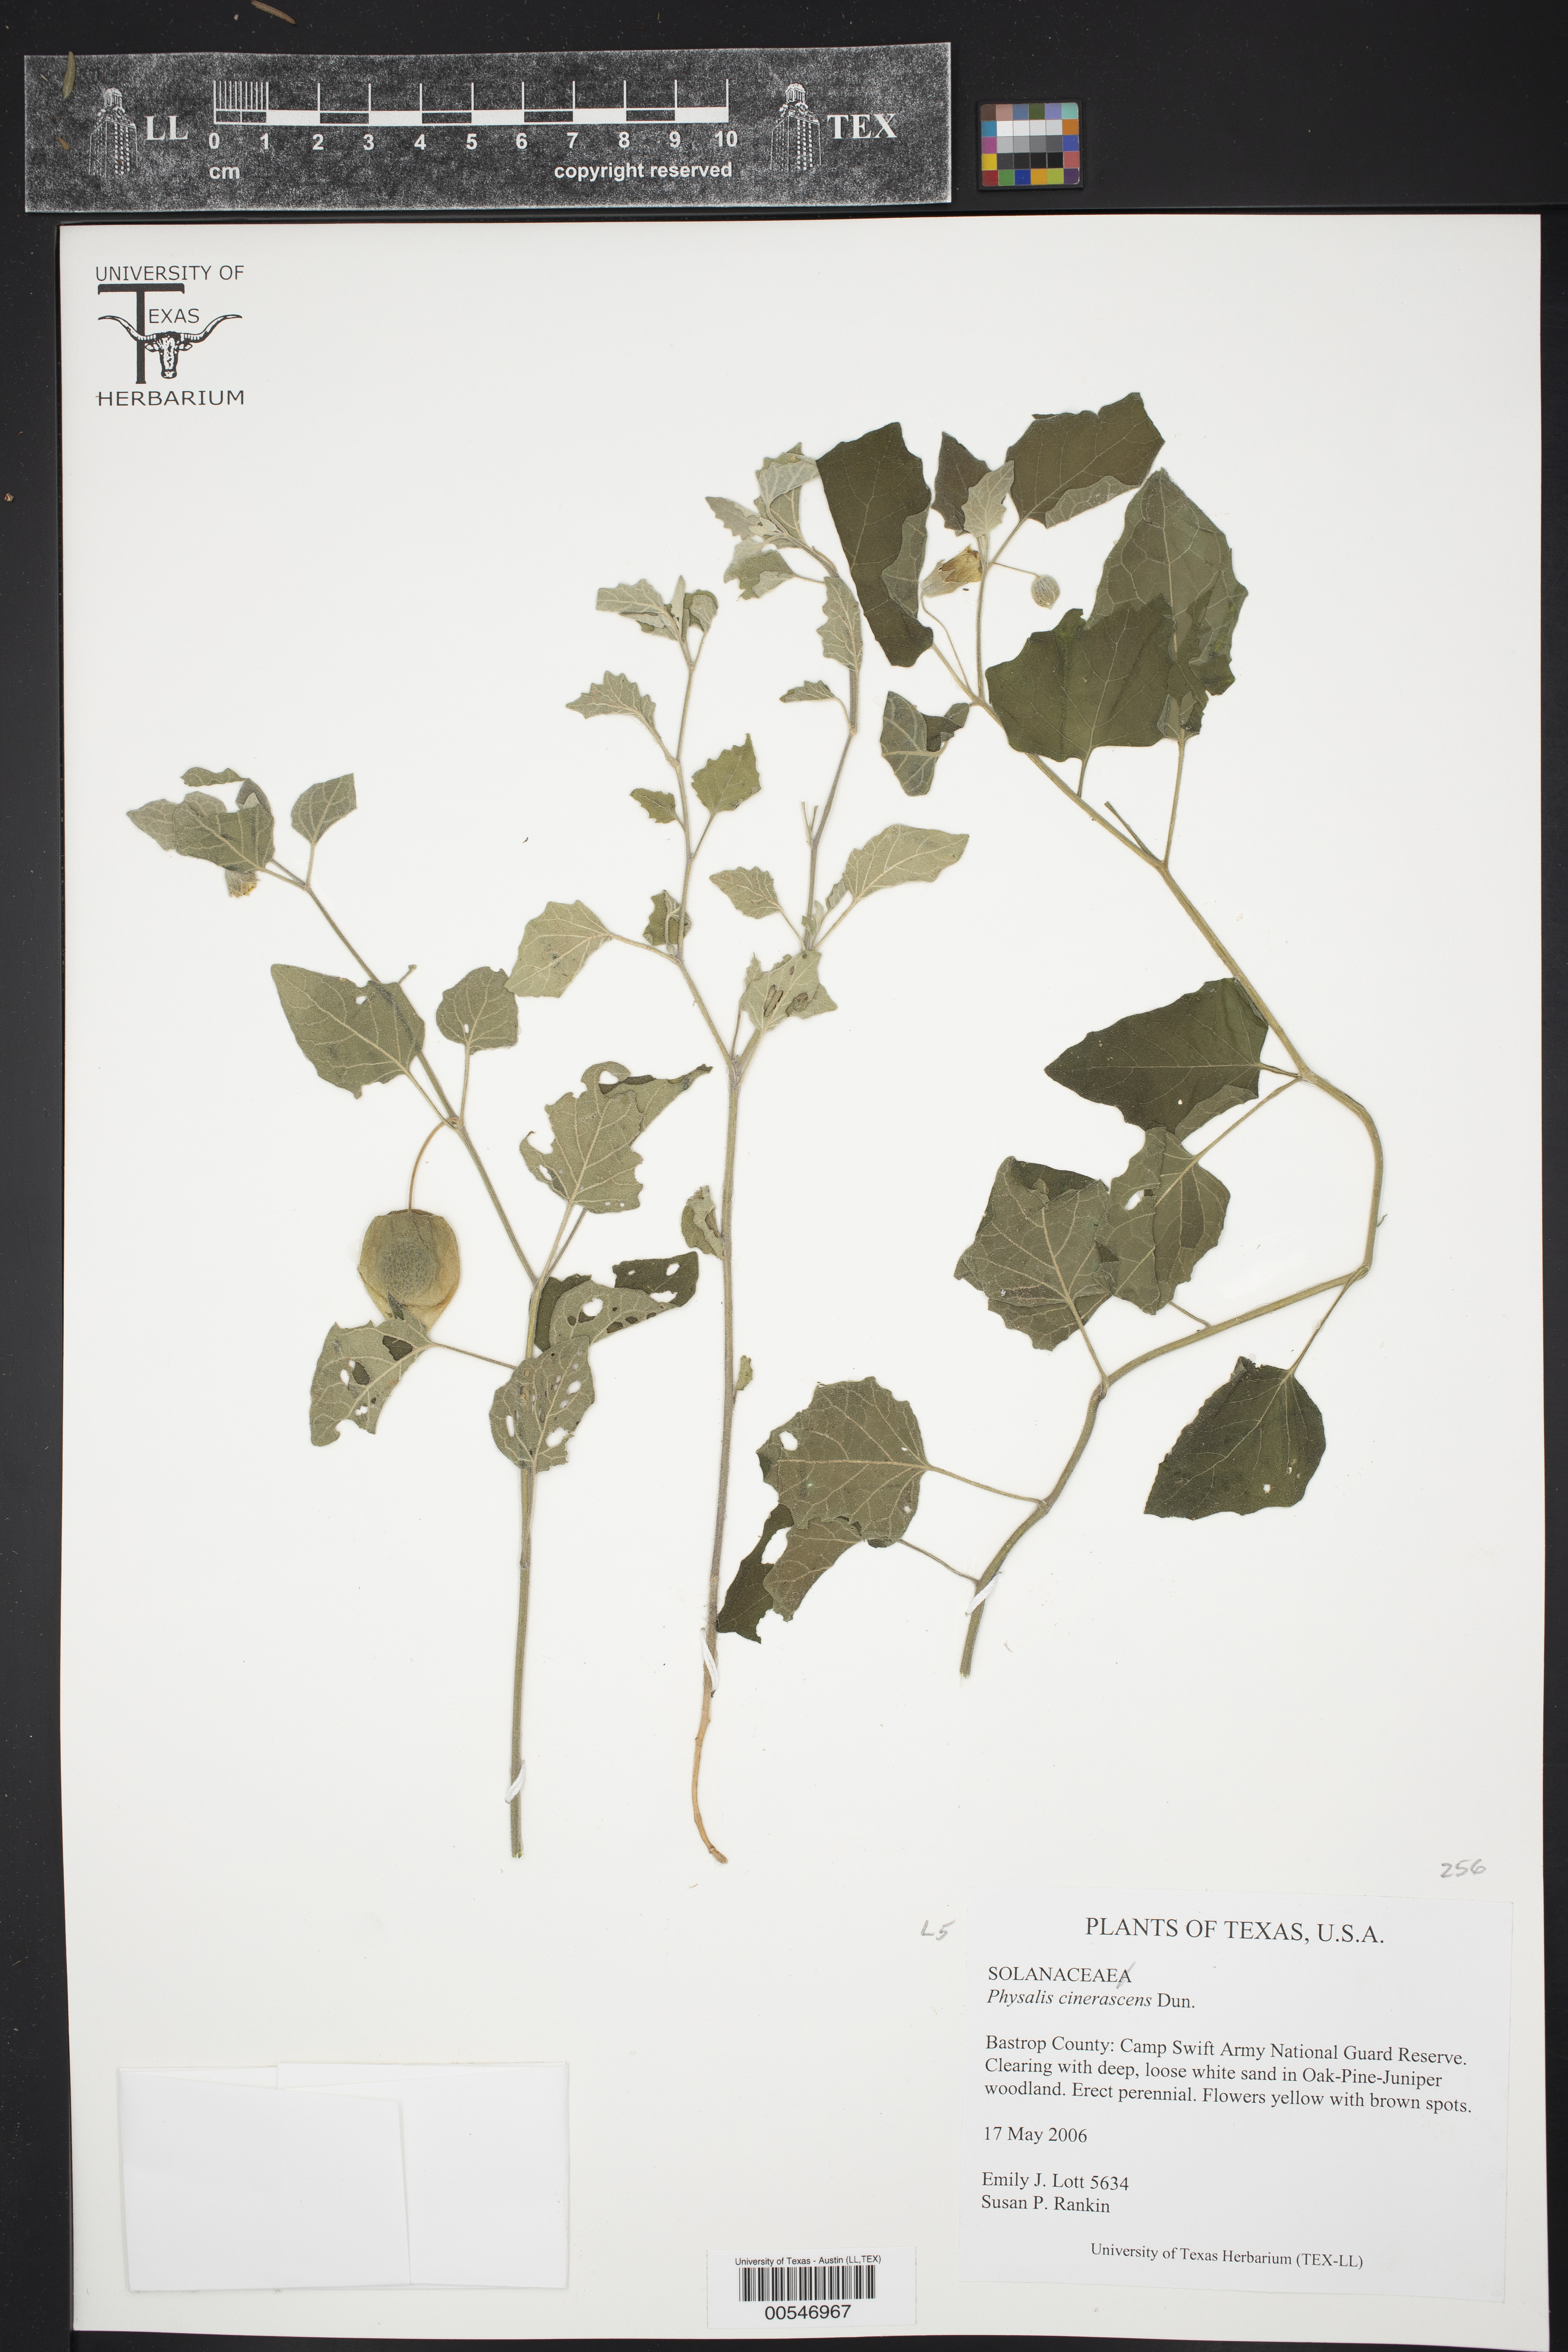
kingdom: Plantae
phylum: Tracheophyta
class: Magnoliopsida
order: Solanales
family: Solanaceae
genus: Physalis
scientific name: Physalis cinerascens
